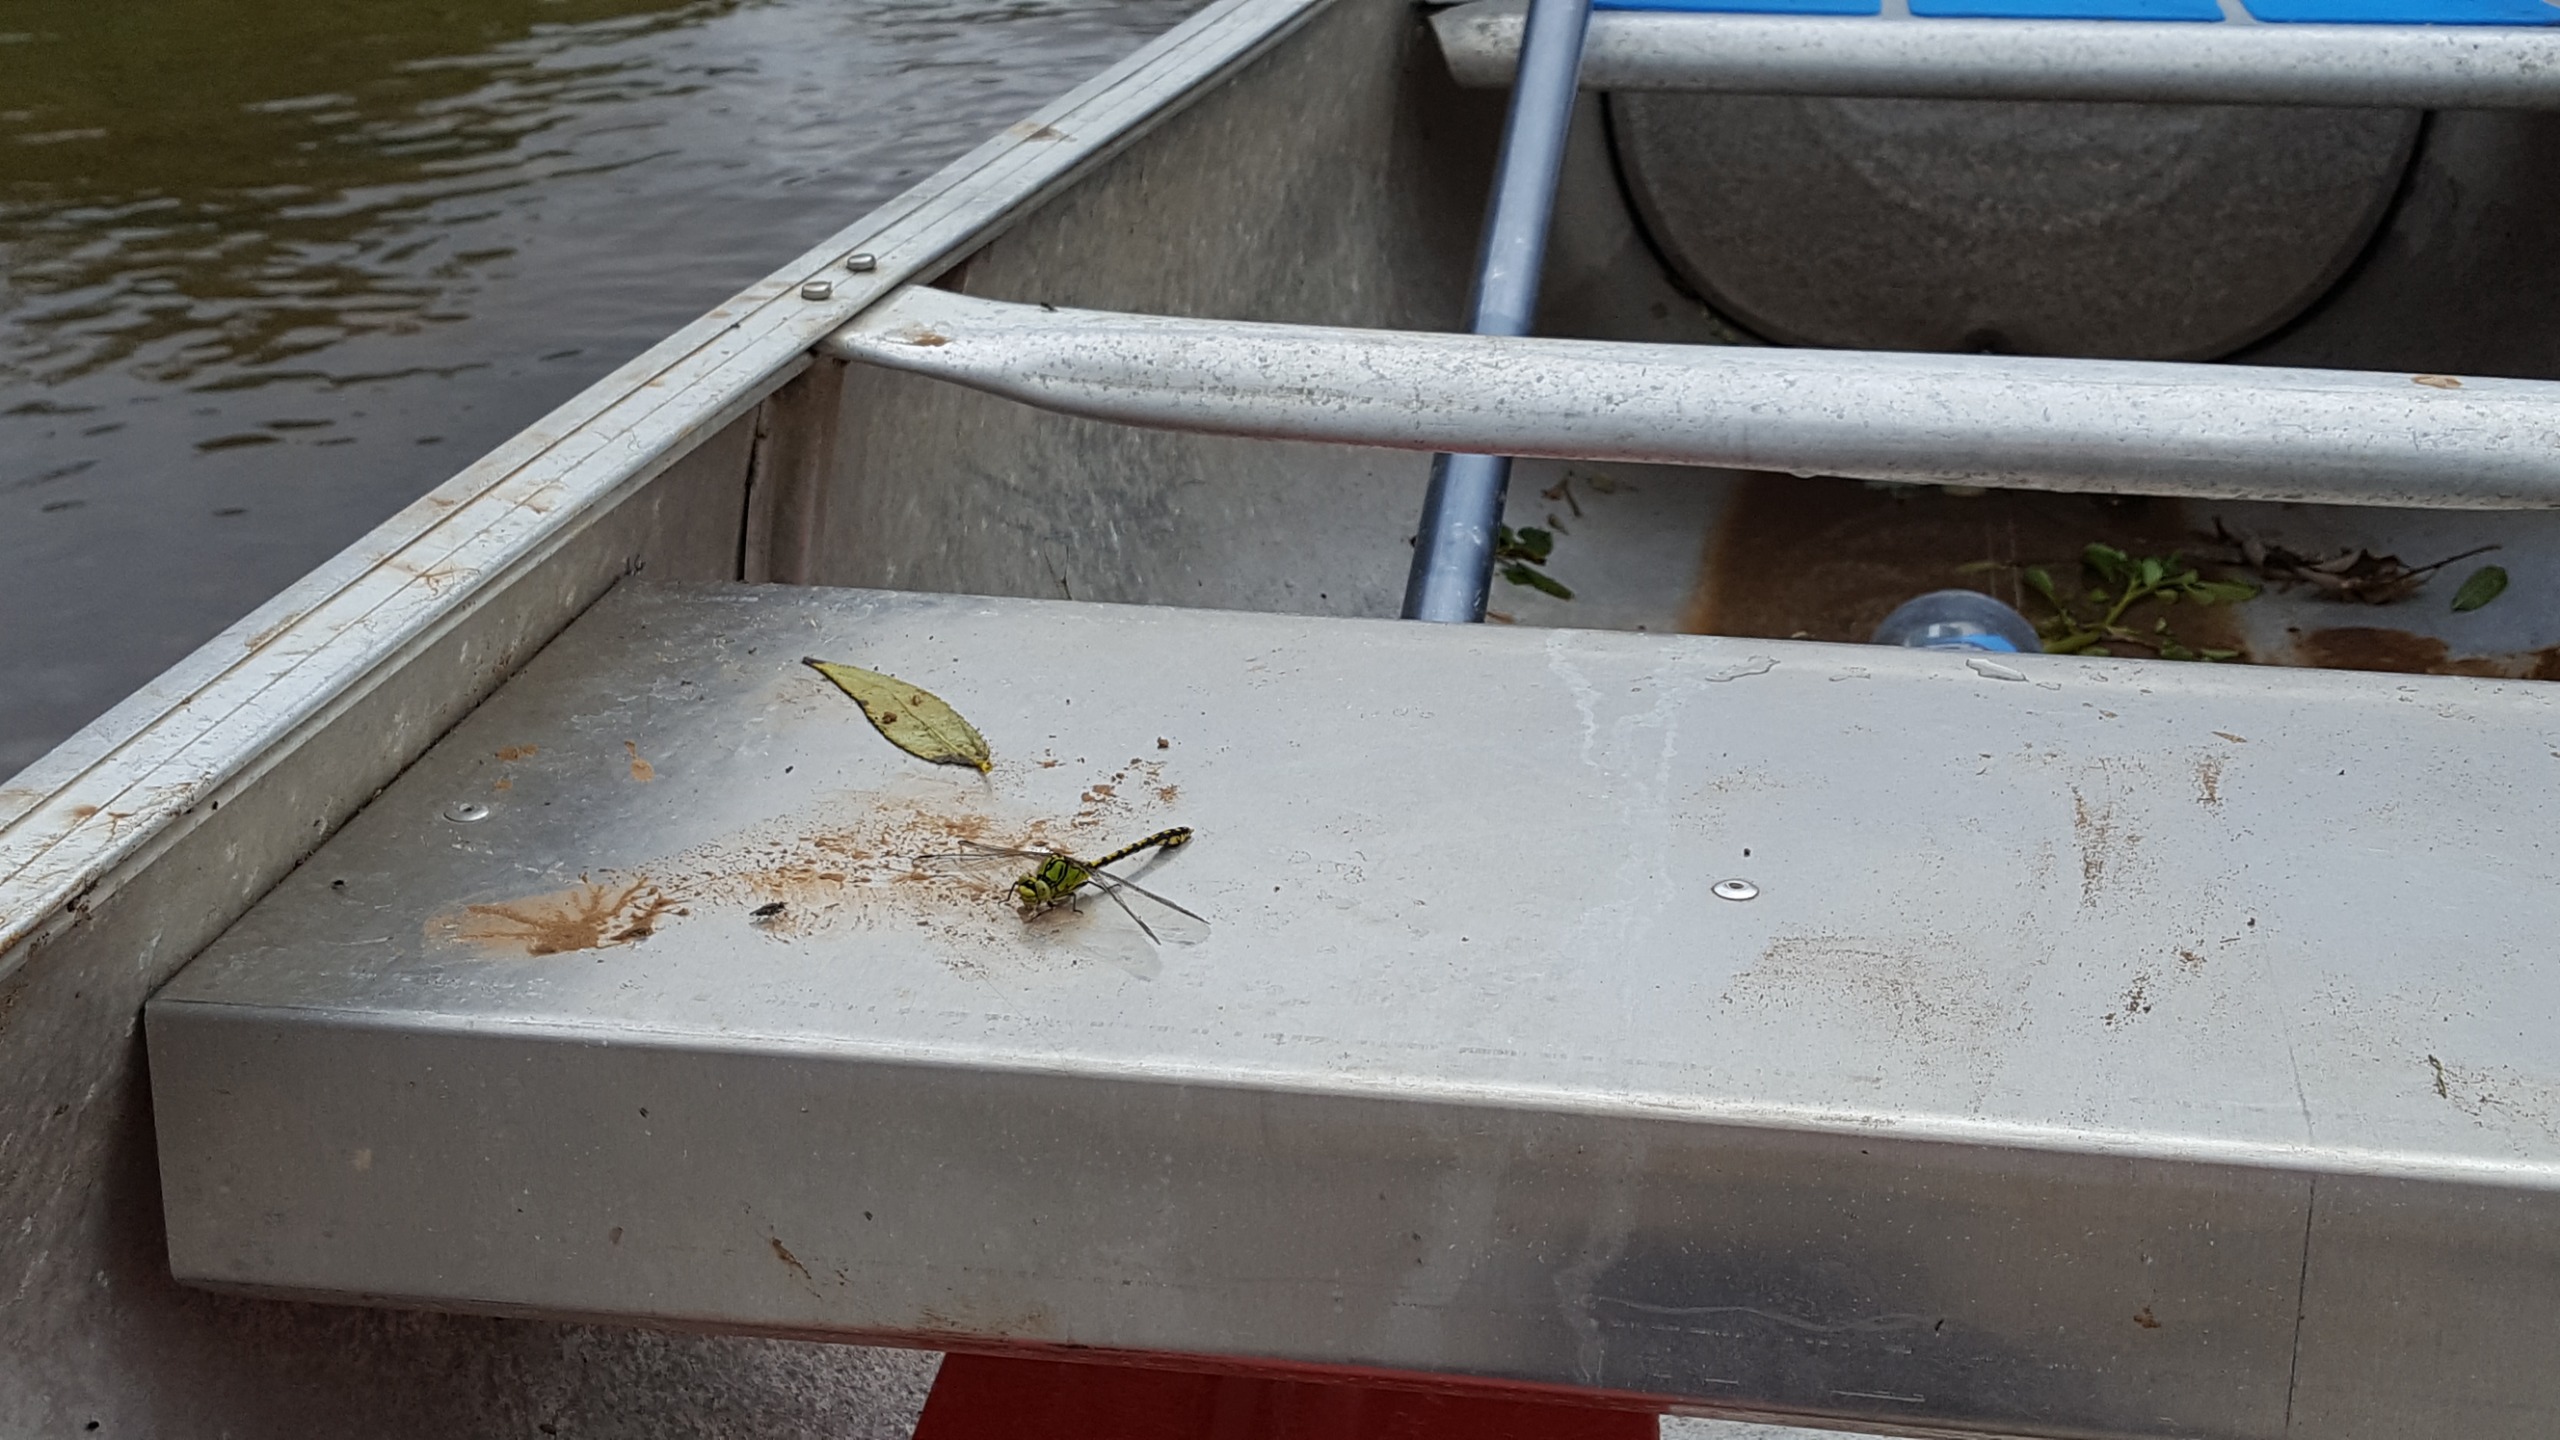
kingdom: Animalia
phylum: Arthropoda
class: Insecta
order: Odonata
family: Gomphidae
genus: Ophiogomphus
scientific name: Ophiogomphus cecilia
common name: Grøn kølleguldsmed
